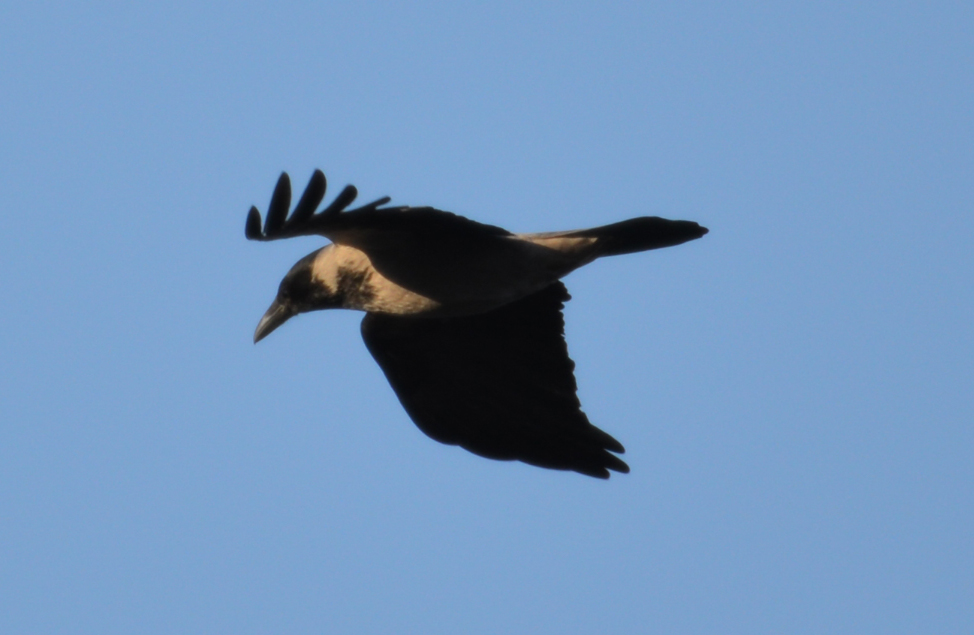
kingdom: Animalia
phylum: Chordata
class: Aves
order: Passeriformes
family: Corvidae
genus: Corvus
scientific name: Corvus cornix
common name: Hooded crow
